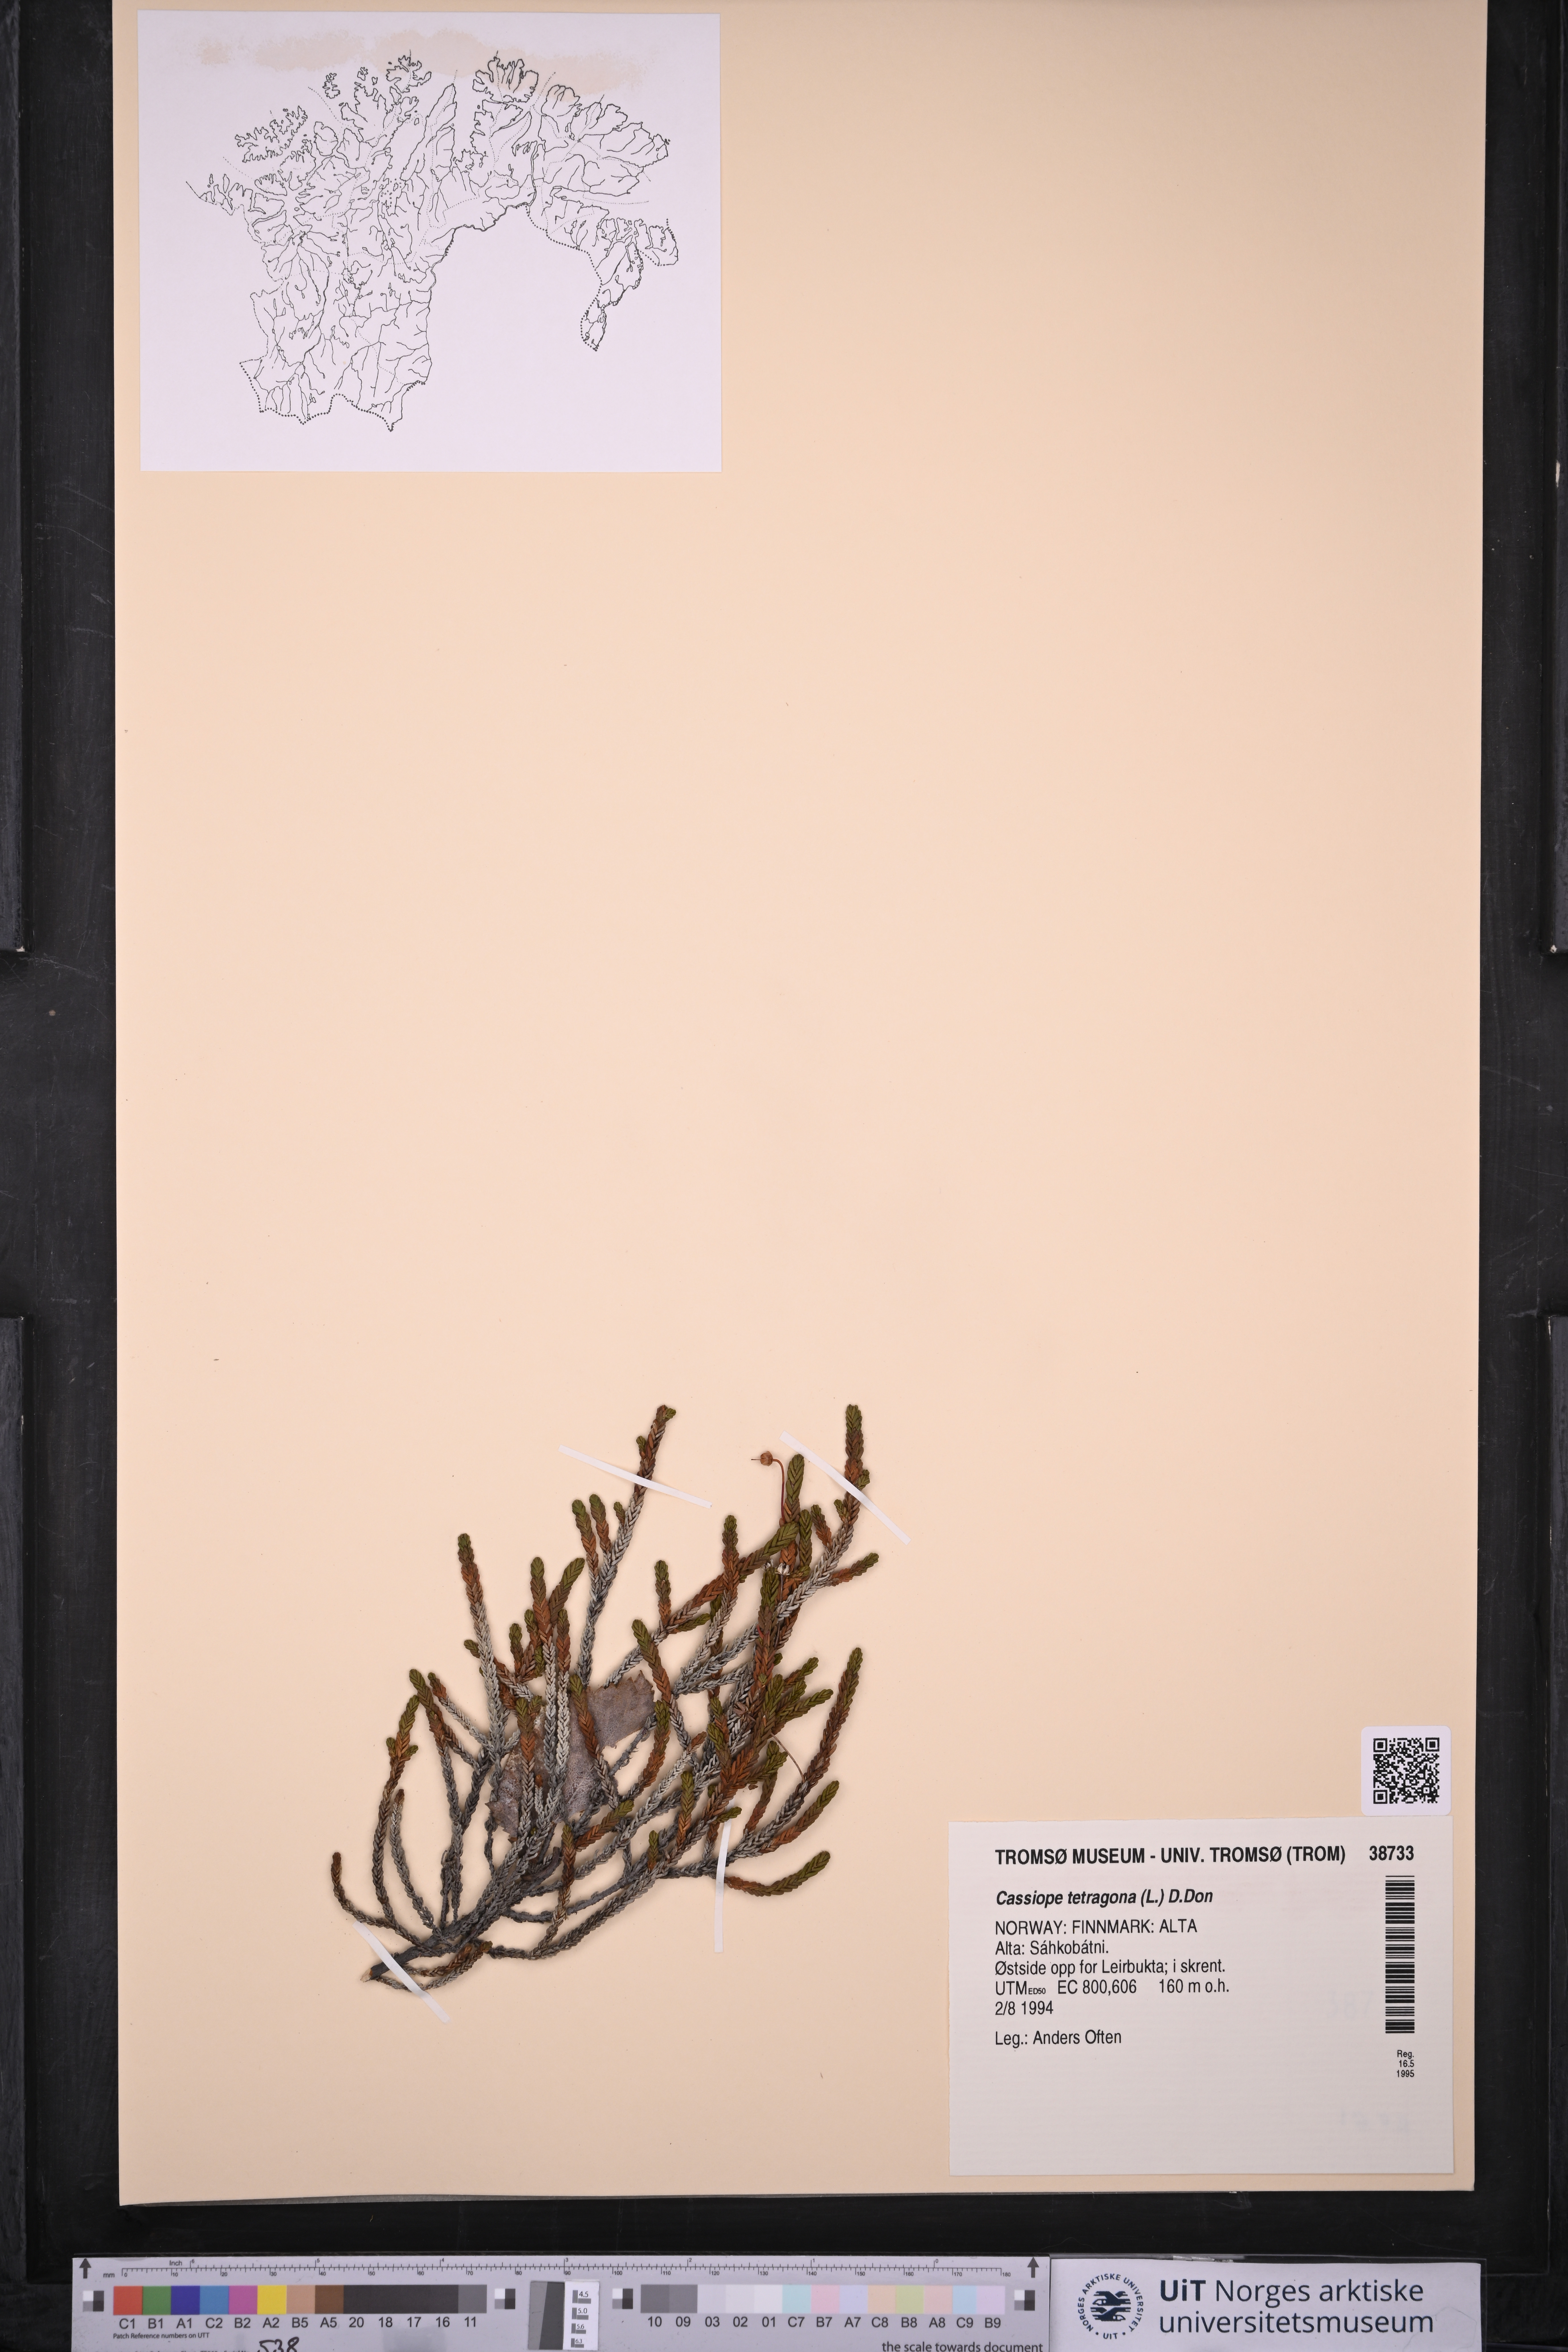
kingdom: Plantae
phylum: Tracheophyta
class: Magnoliopsida
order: Ericales
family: Ericaceae
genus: Cassiope
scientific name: Cassiope tetragona
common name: Arctic bell heather
